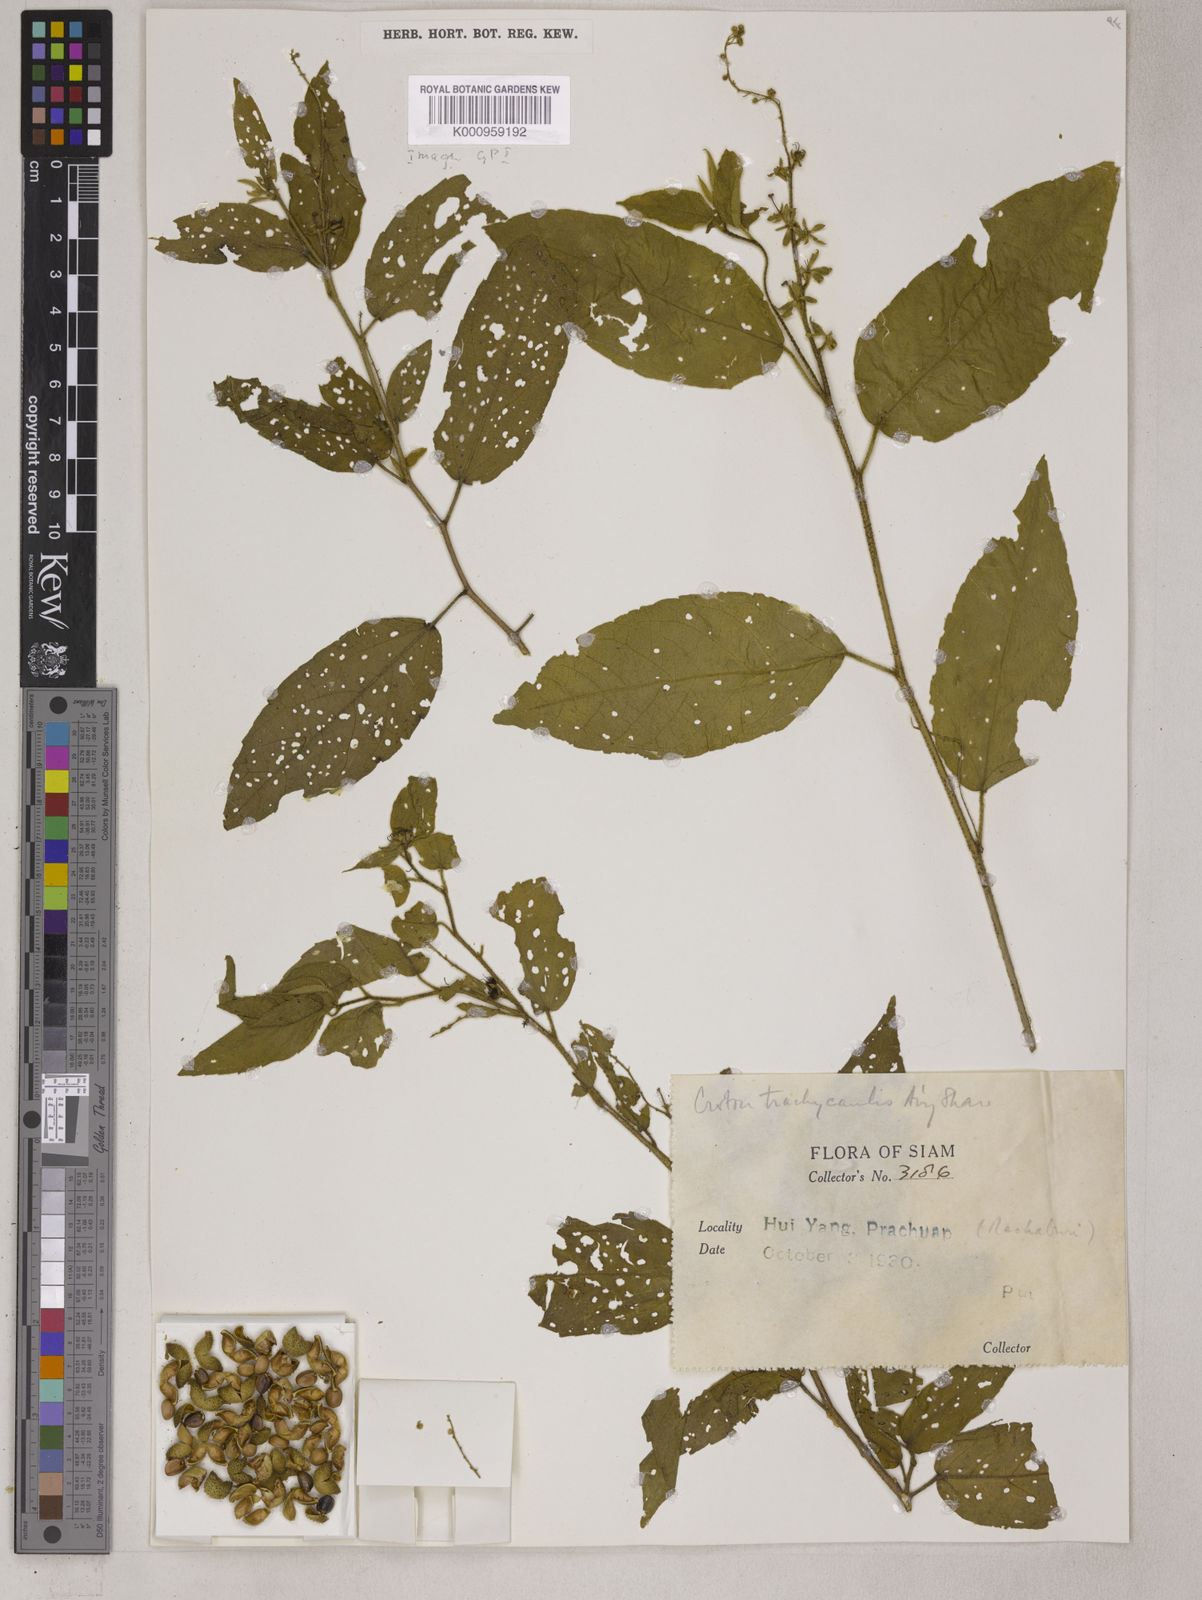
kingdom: Plantae
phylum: Tracheophyta
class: Magnoliopsida
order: Malpighiales
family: Euphorbiaceae
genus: Croton
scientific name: Croton lachnocarpus
